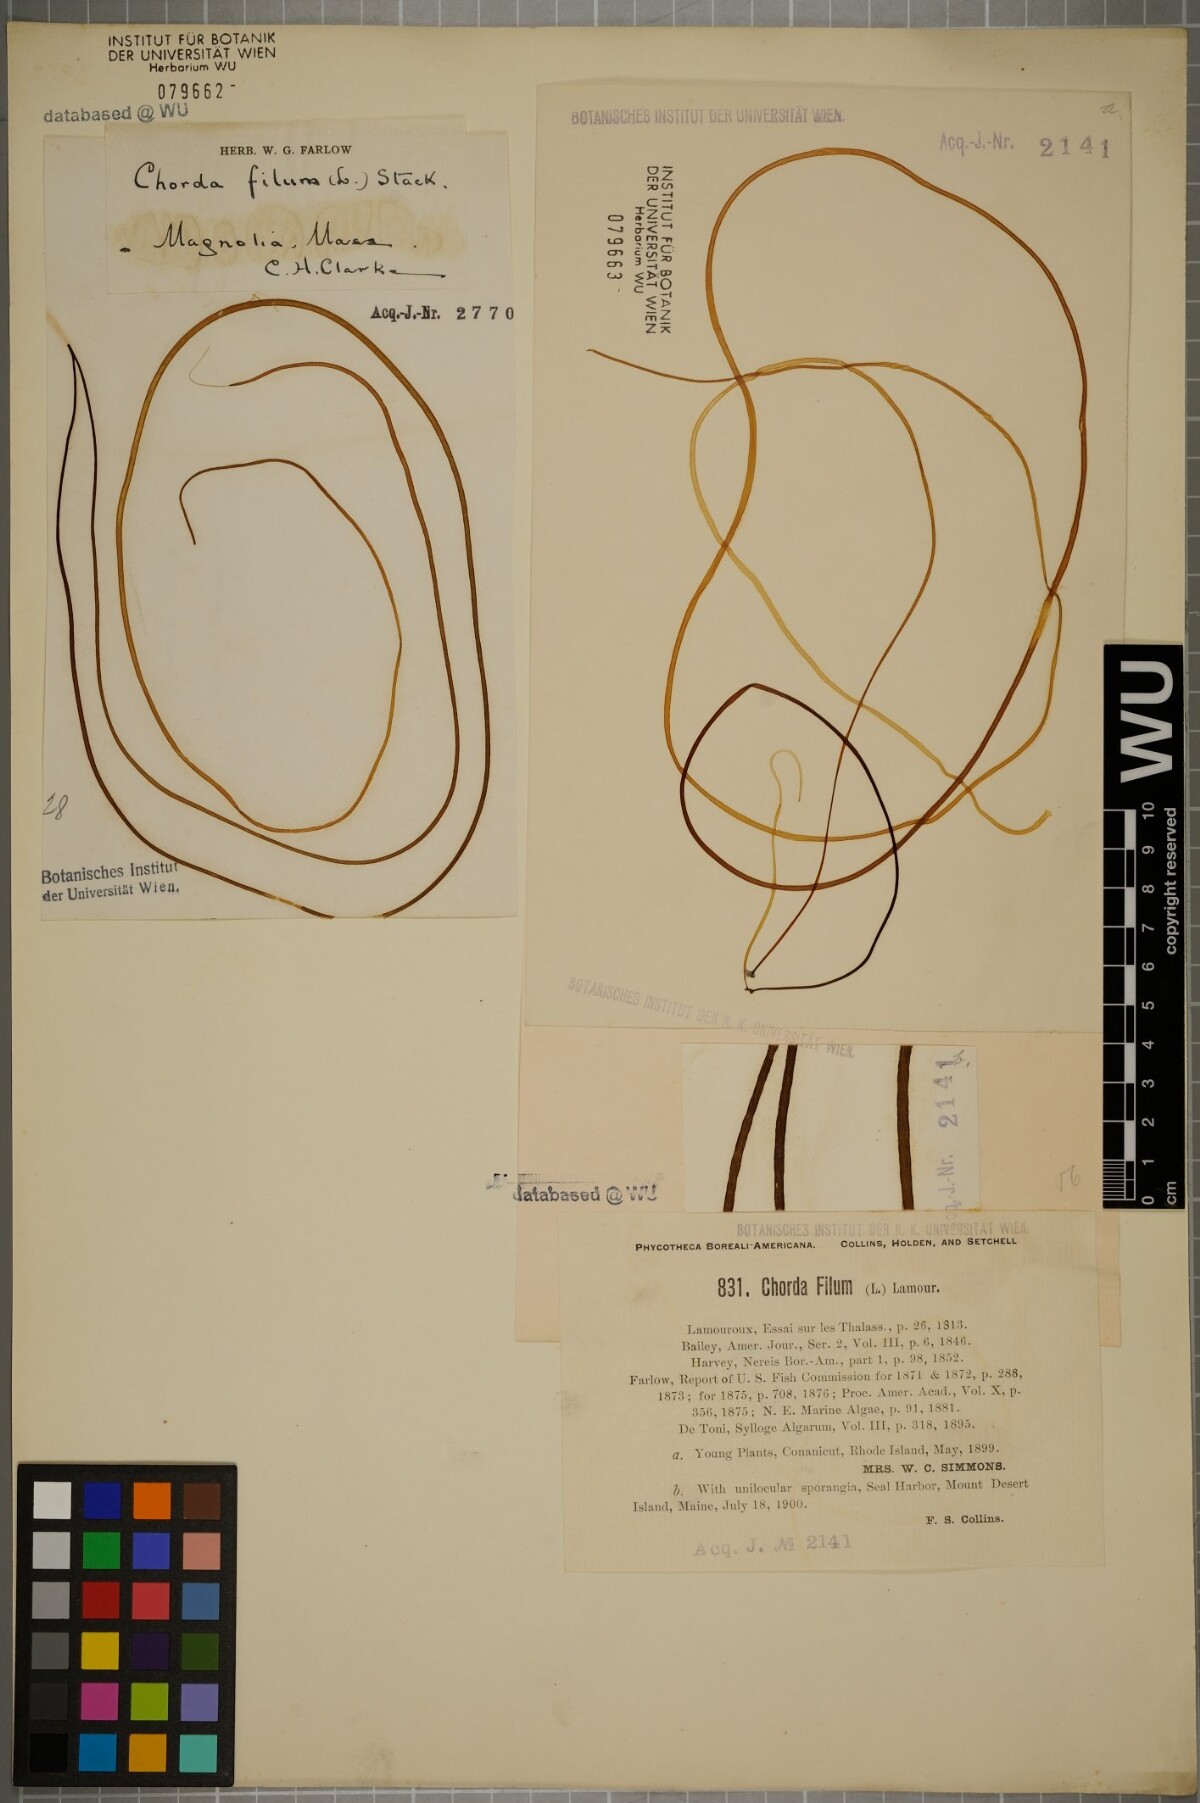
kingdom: Chromista
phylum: Ochrophyta
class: Phaeophyceae
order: Laminariales
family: Chordaceae
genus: Chorda
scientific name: Chorda filum
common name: Mermaid's tresses
